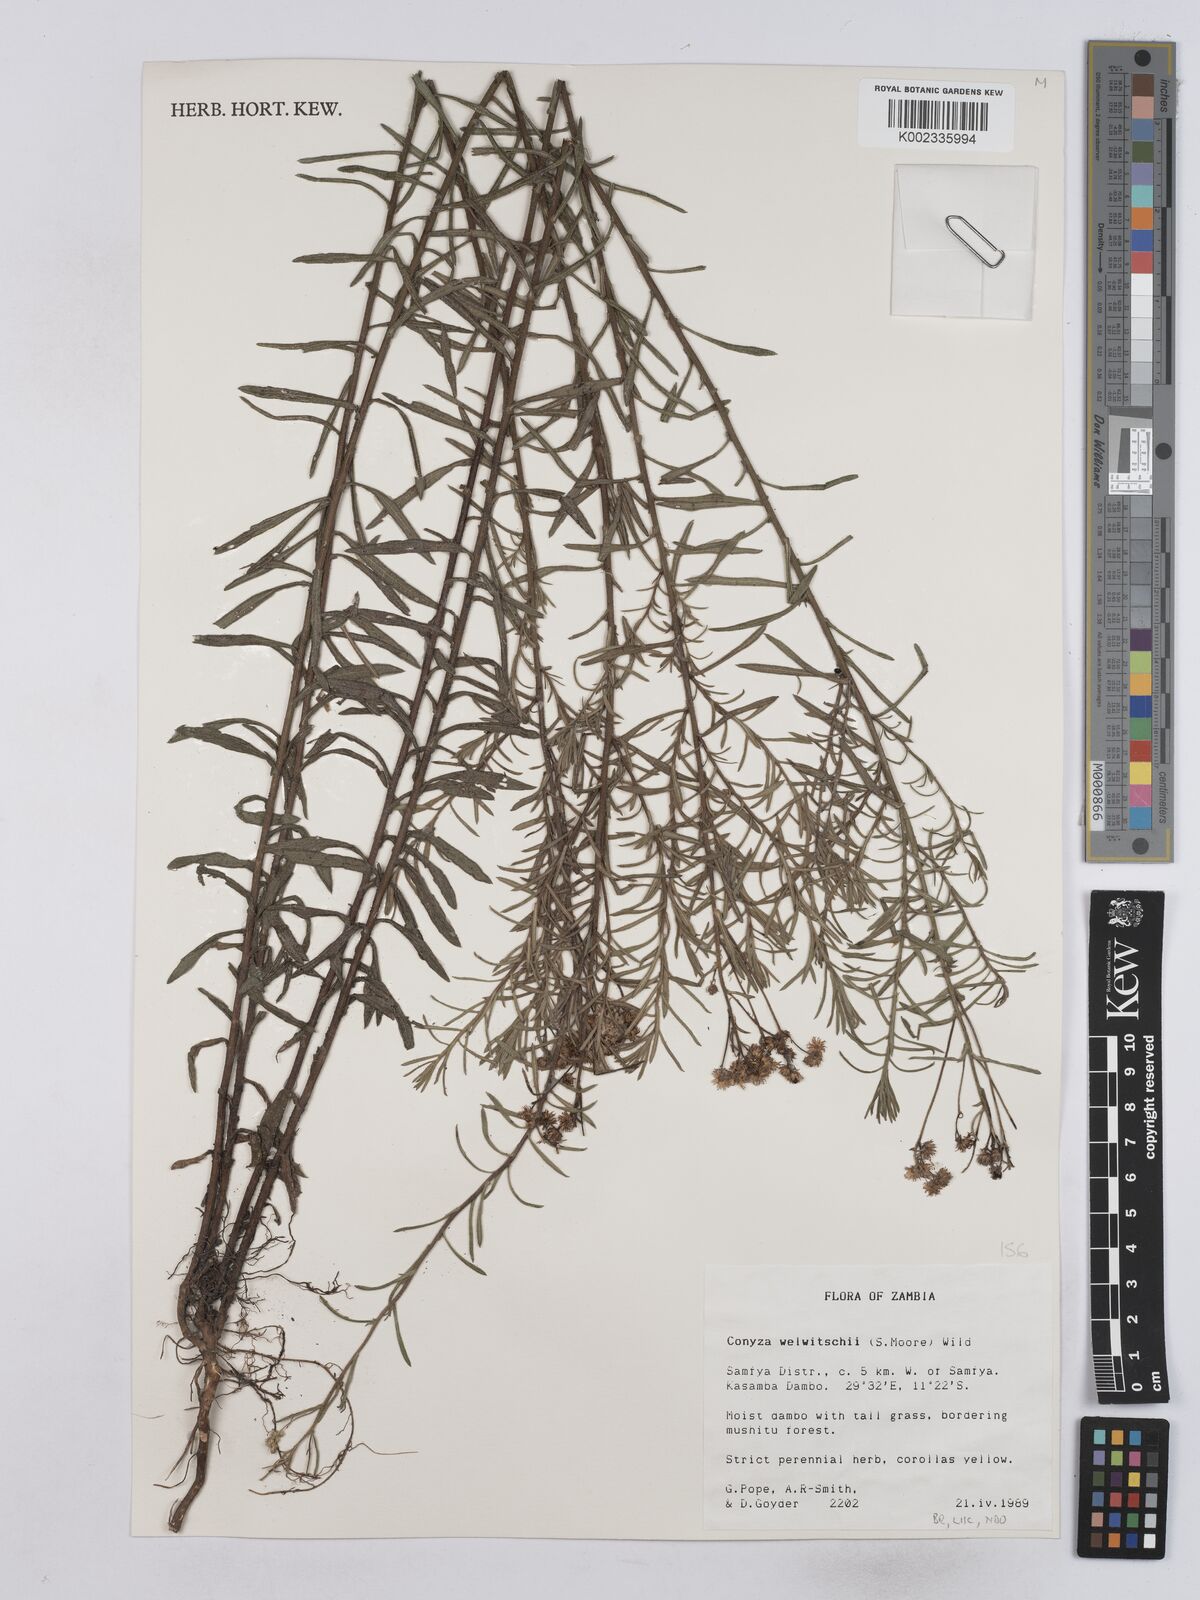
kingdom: Plantae
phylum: Tracheophyta
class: Magnoliopsida
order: Asterales
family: Asteraceae
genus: Nidorella
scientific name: Nidorella welwitschii
